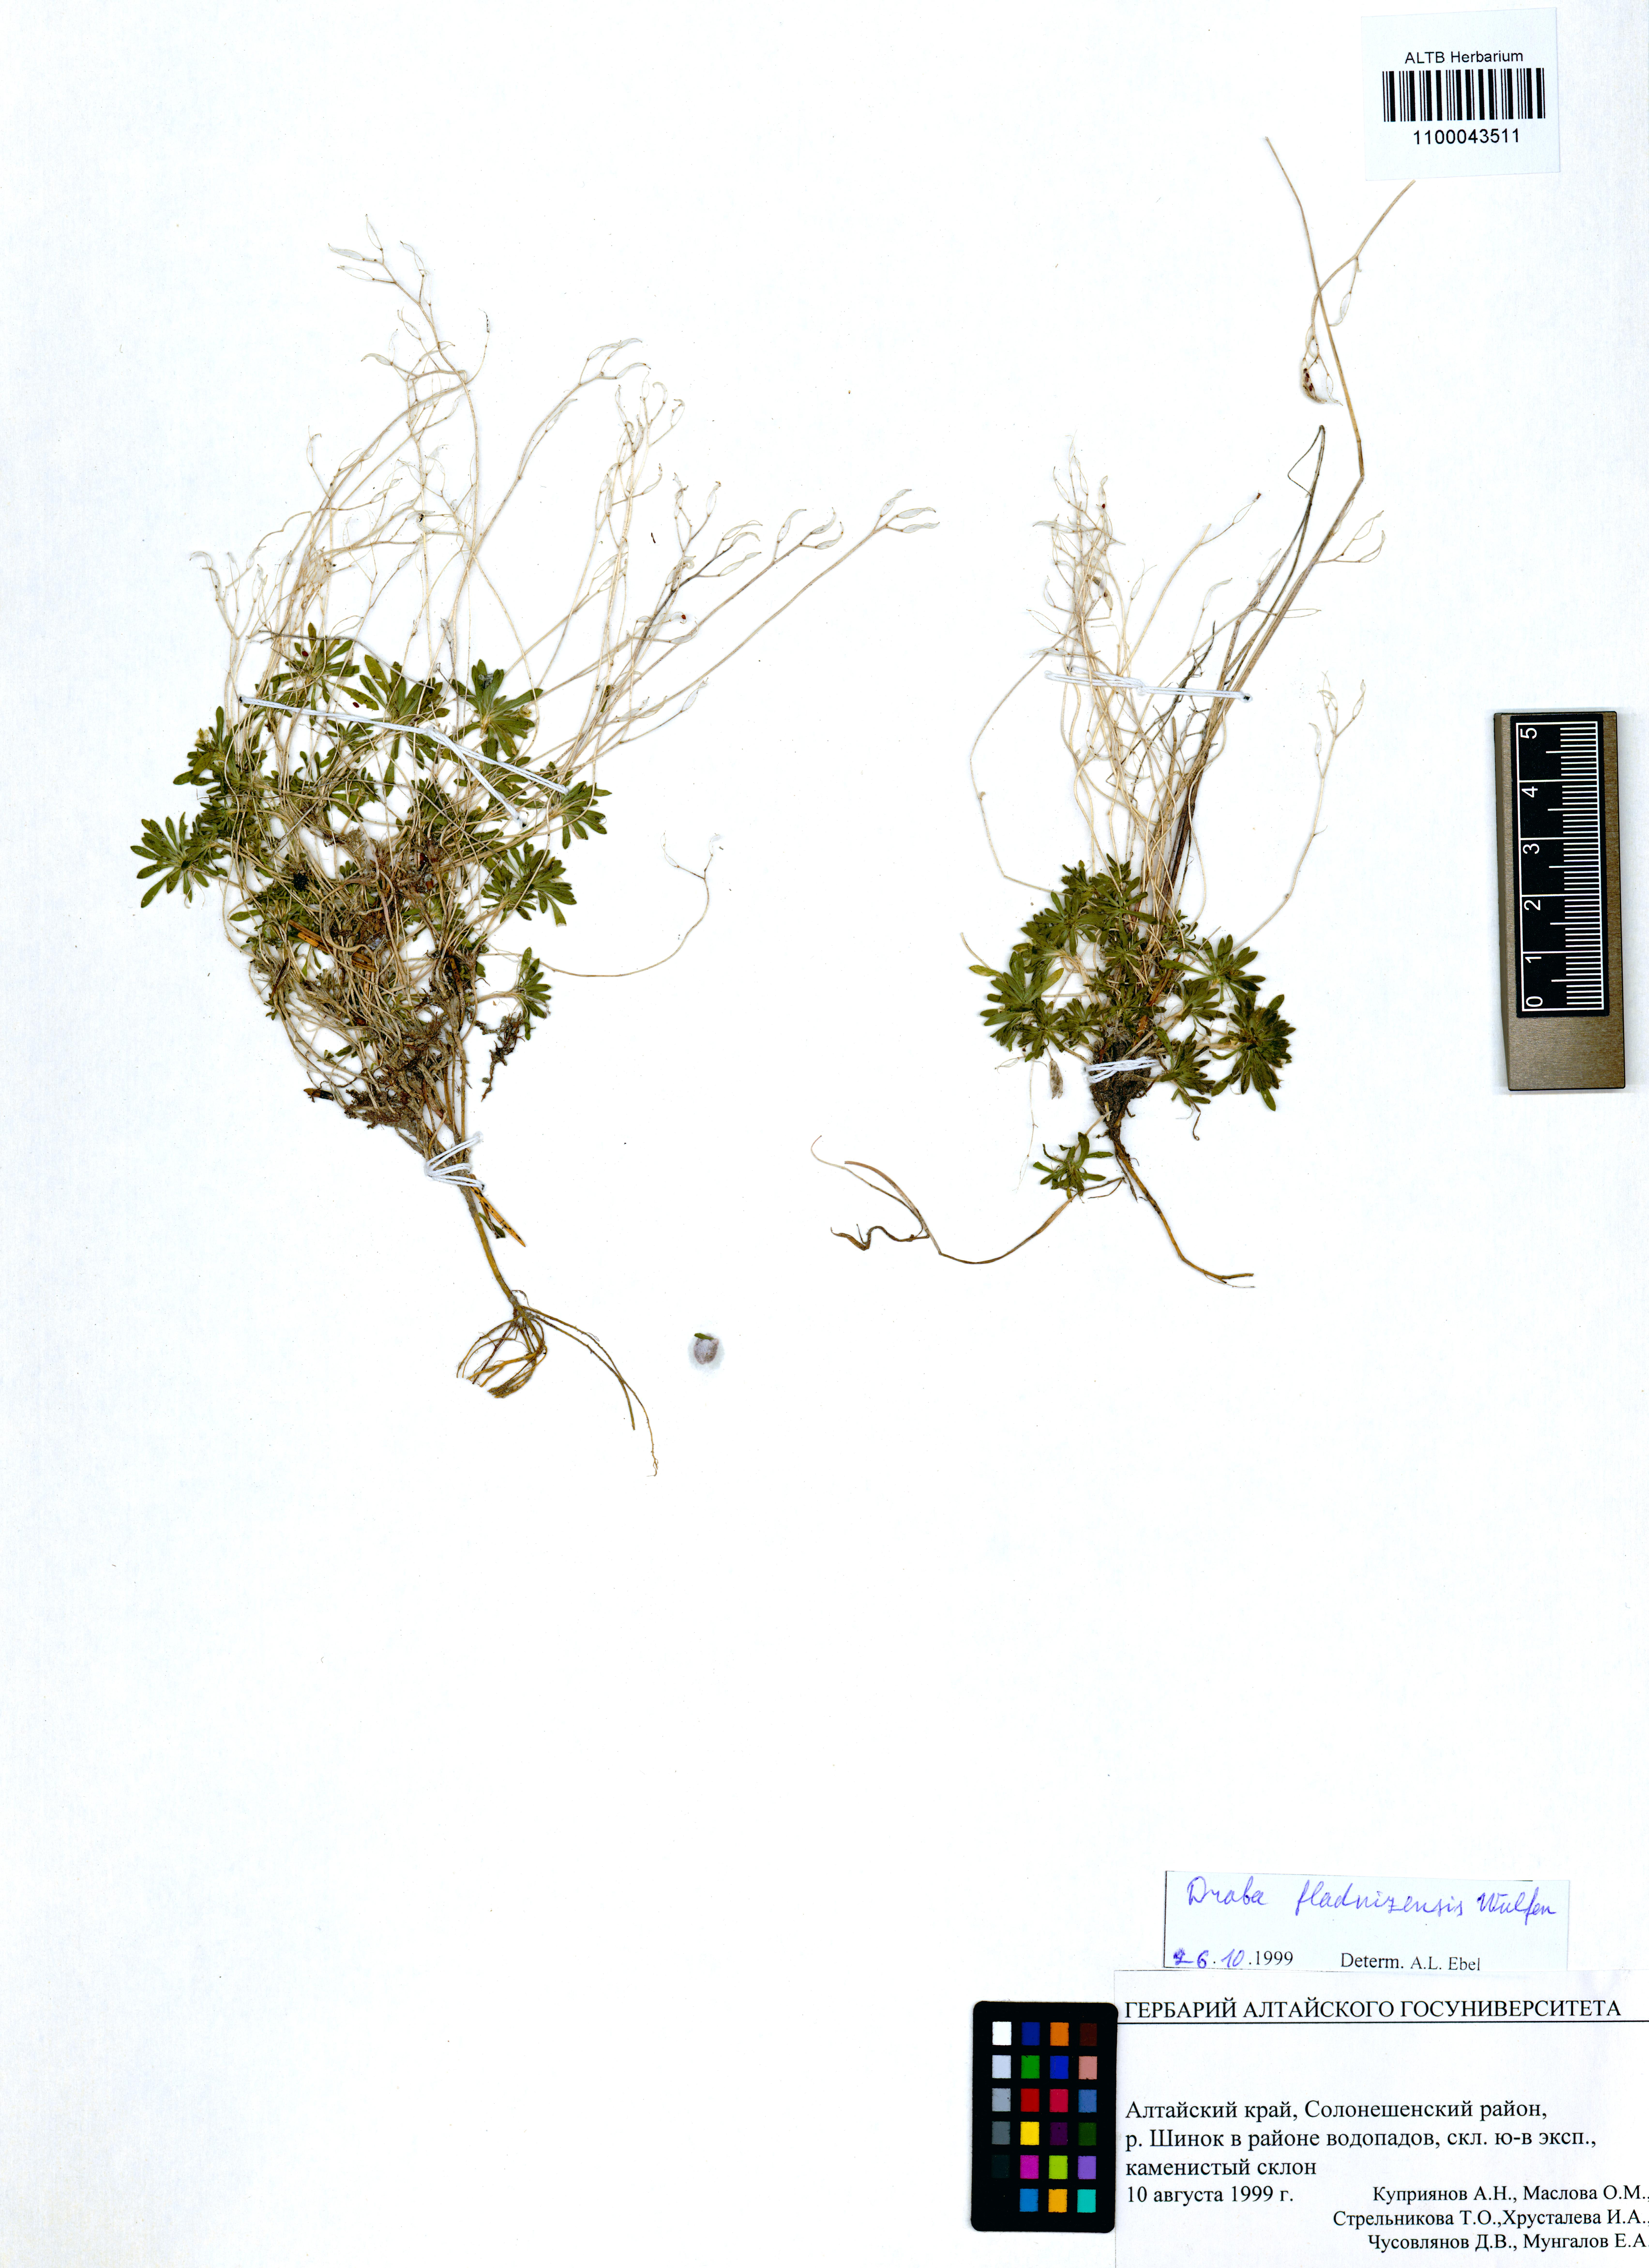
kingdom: Plantae
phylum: Tracheophyta
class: Magnoliopsida
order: Brassicales
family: Brassicaceae
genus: Draba
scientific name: Draba fladnizensis
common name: Austrian draba
